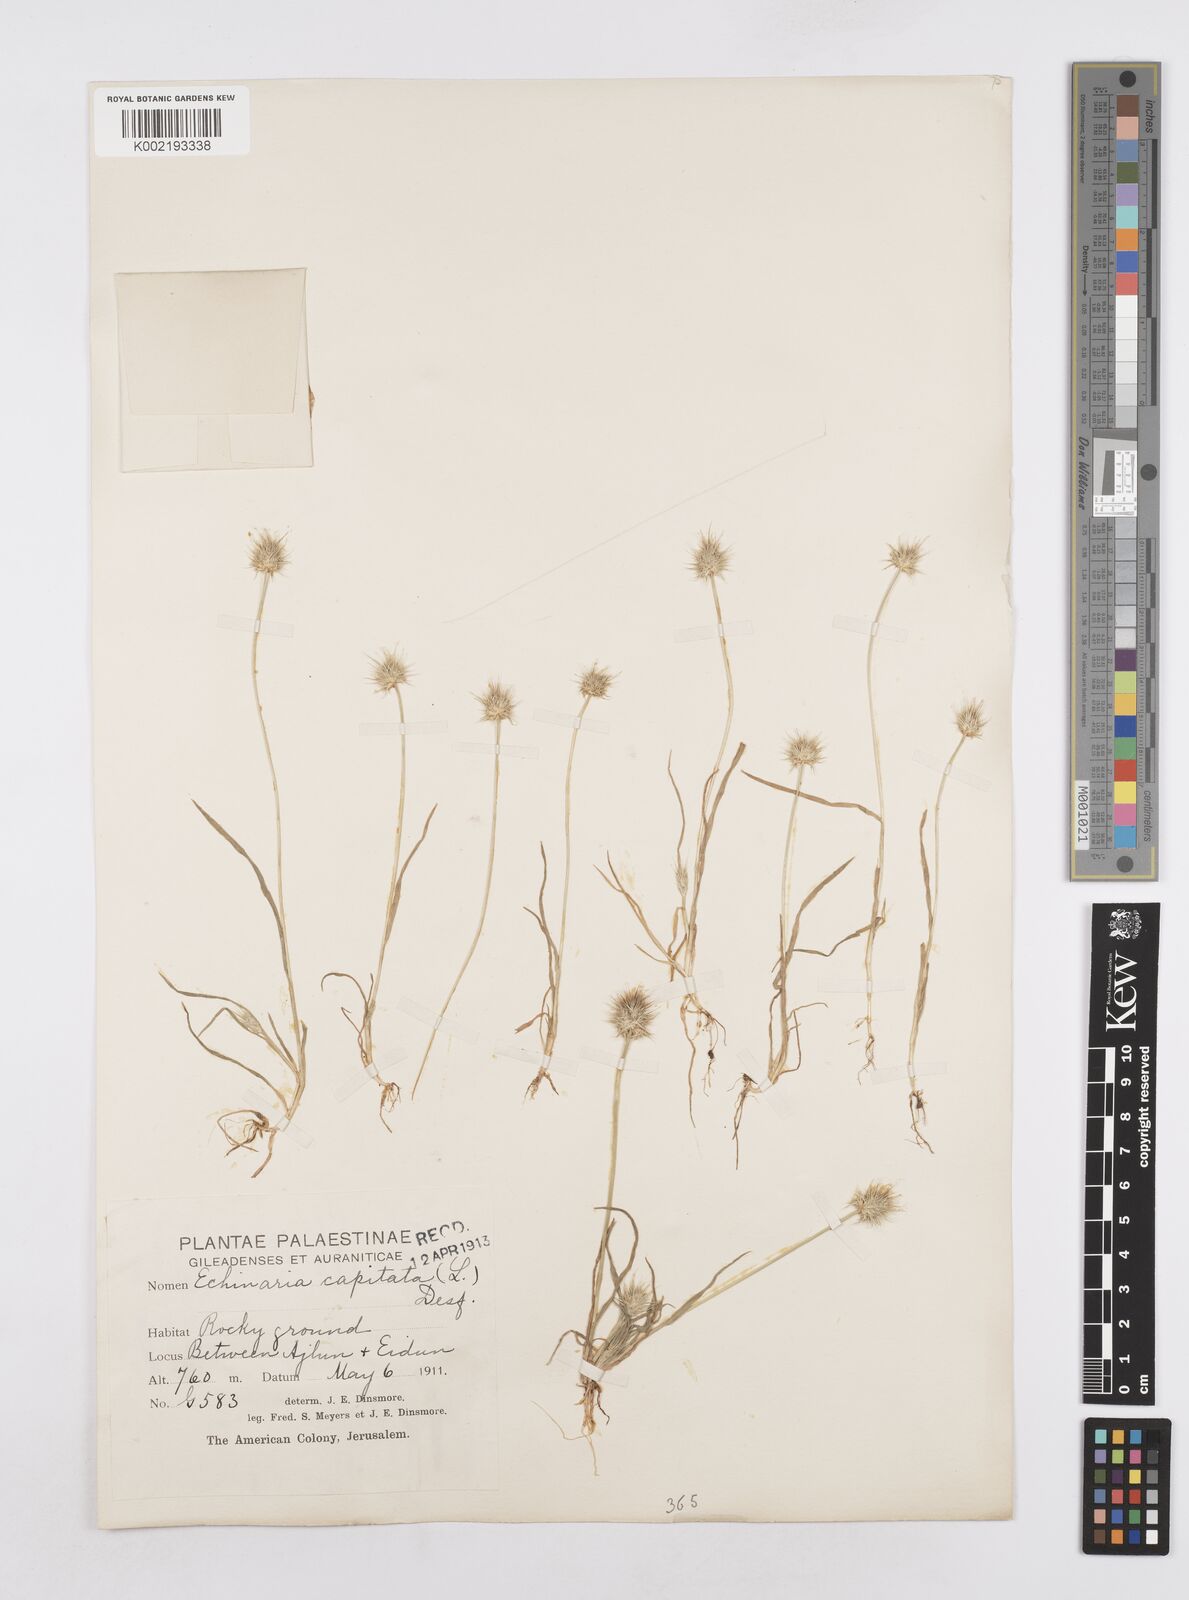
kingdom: Plantae
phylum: Tracheophyta
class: Liliopsida
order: Poales
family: Poaceae
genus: Echinaria
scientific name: Echinaria capitata
